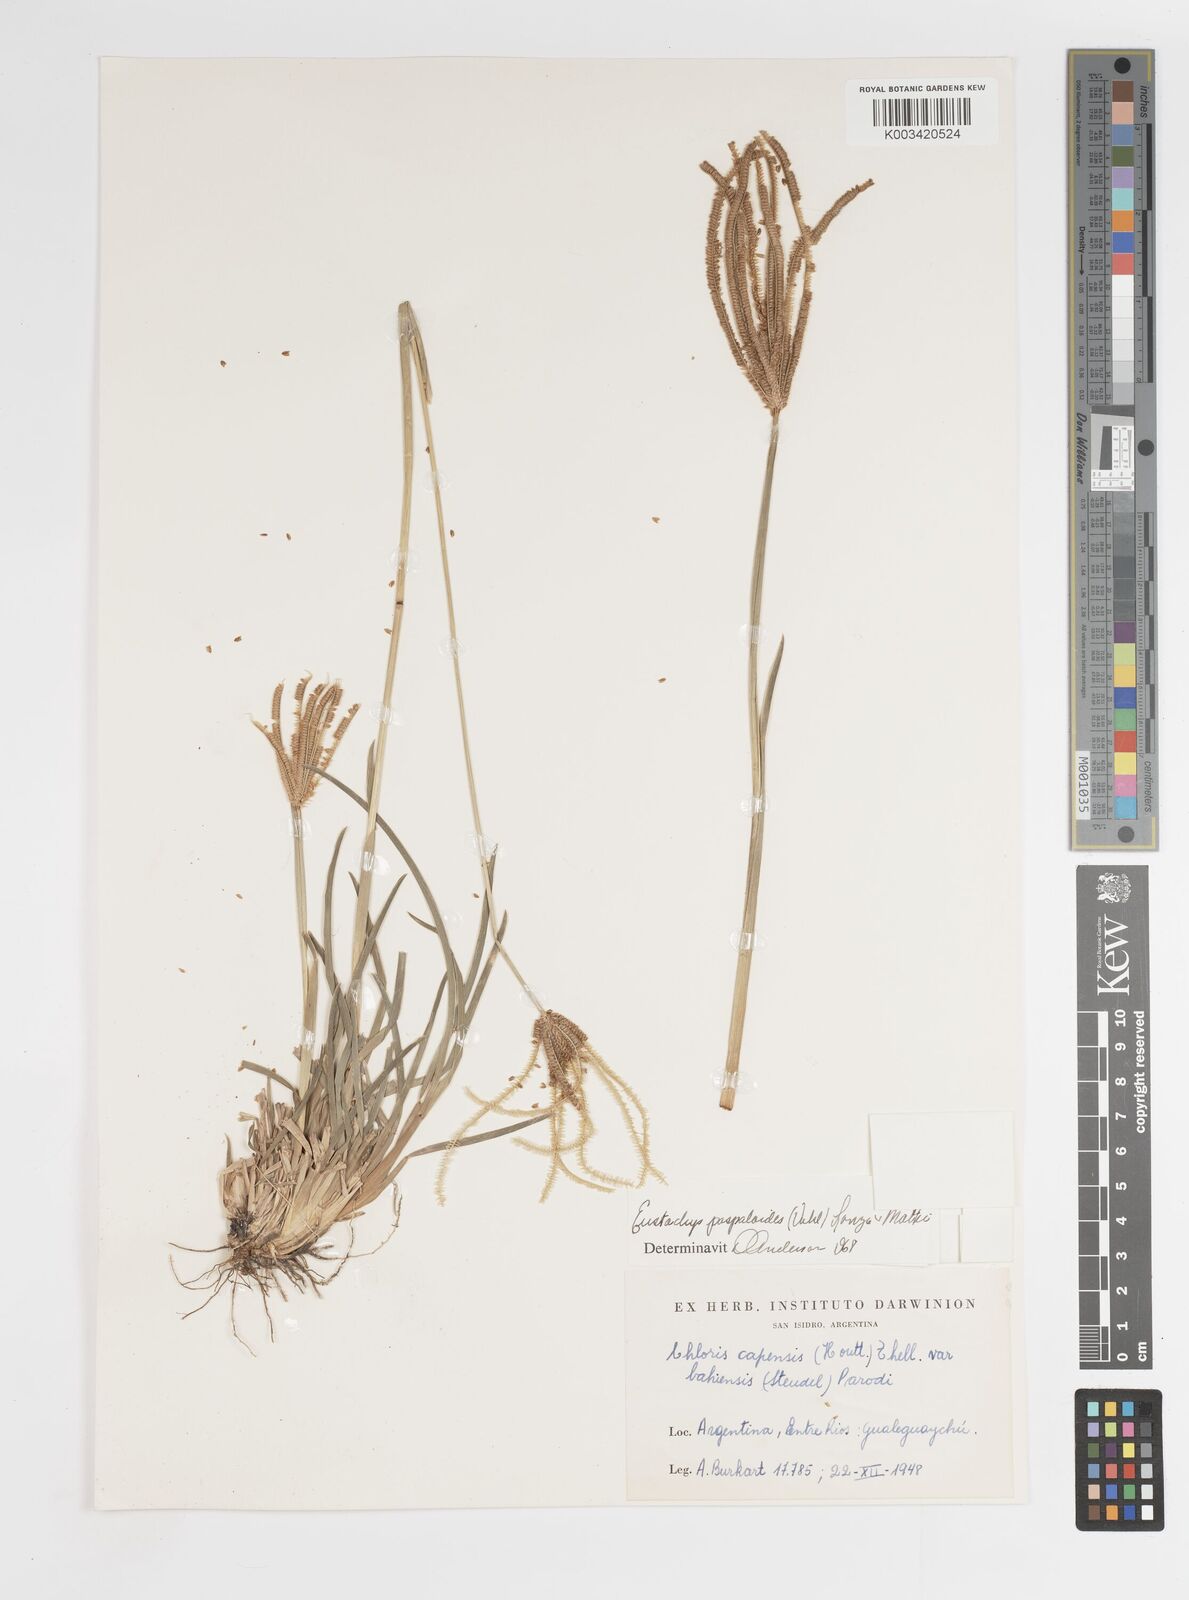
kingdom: Plantae
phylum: Tracheophyta
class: Liliopsida
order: Poales
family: Poaceae
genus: Eustachys
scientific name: Eustachys bahiensis
